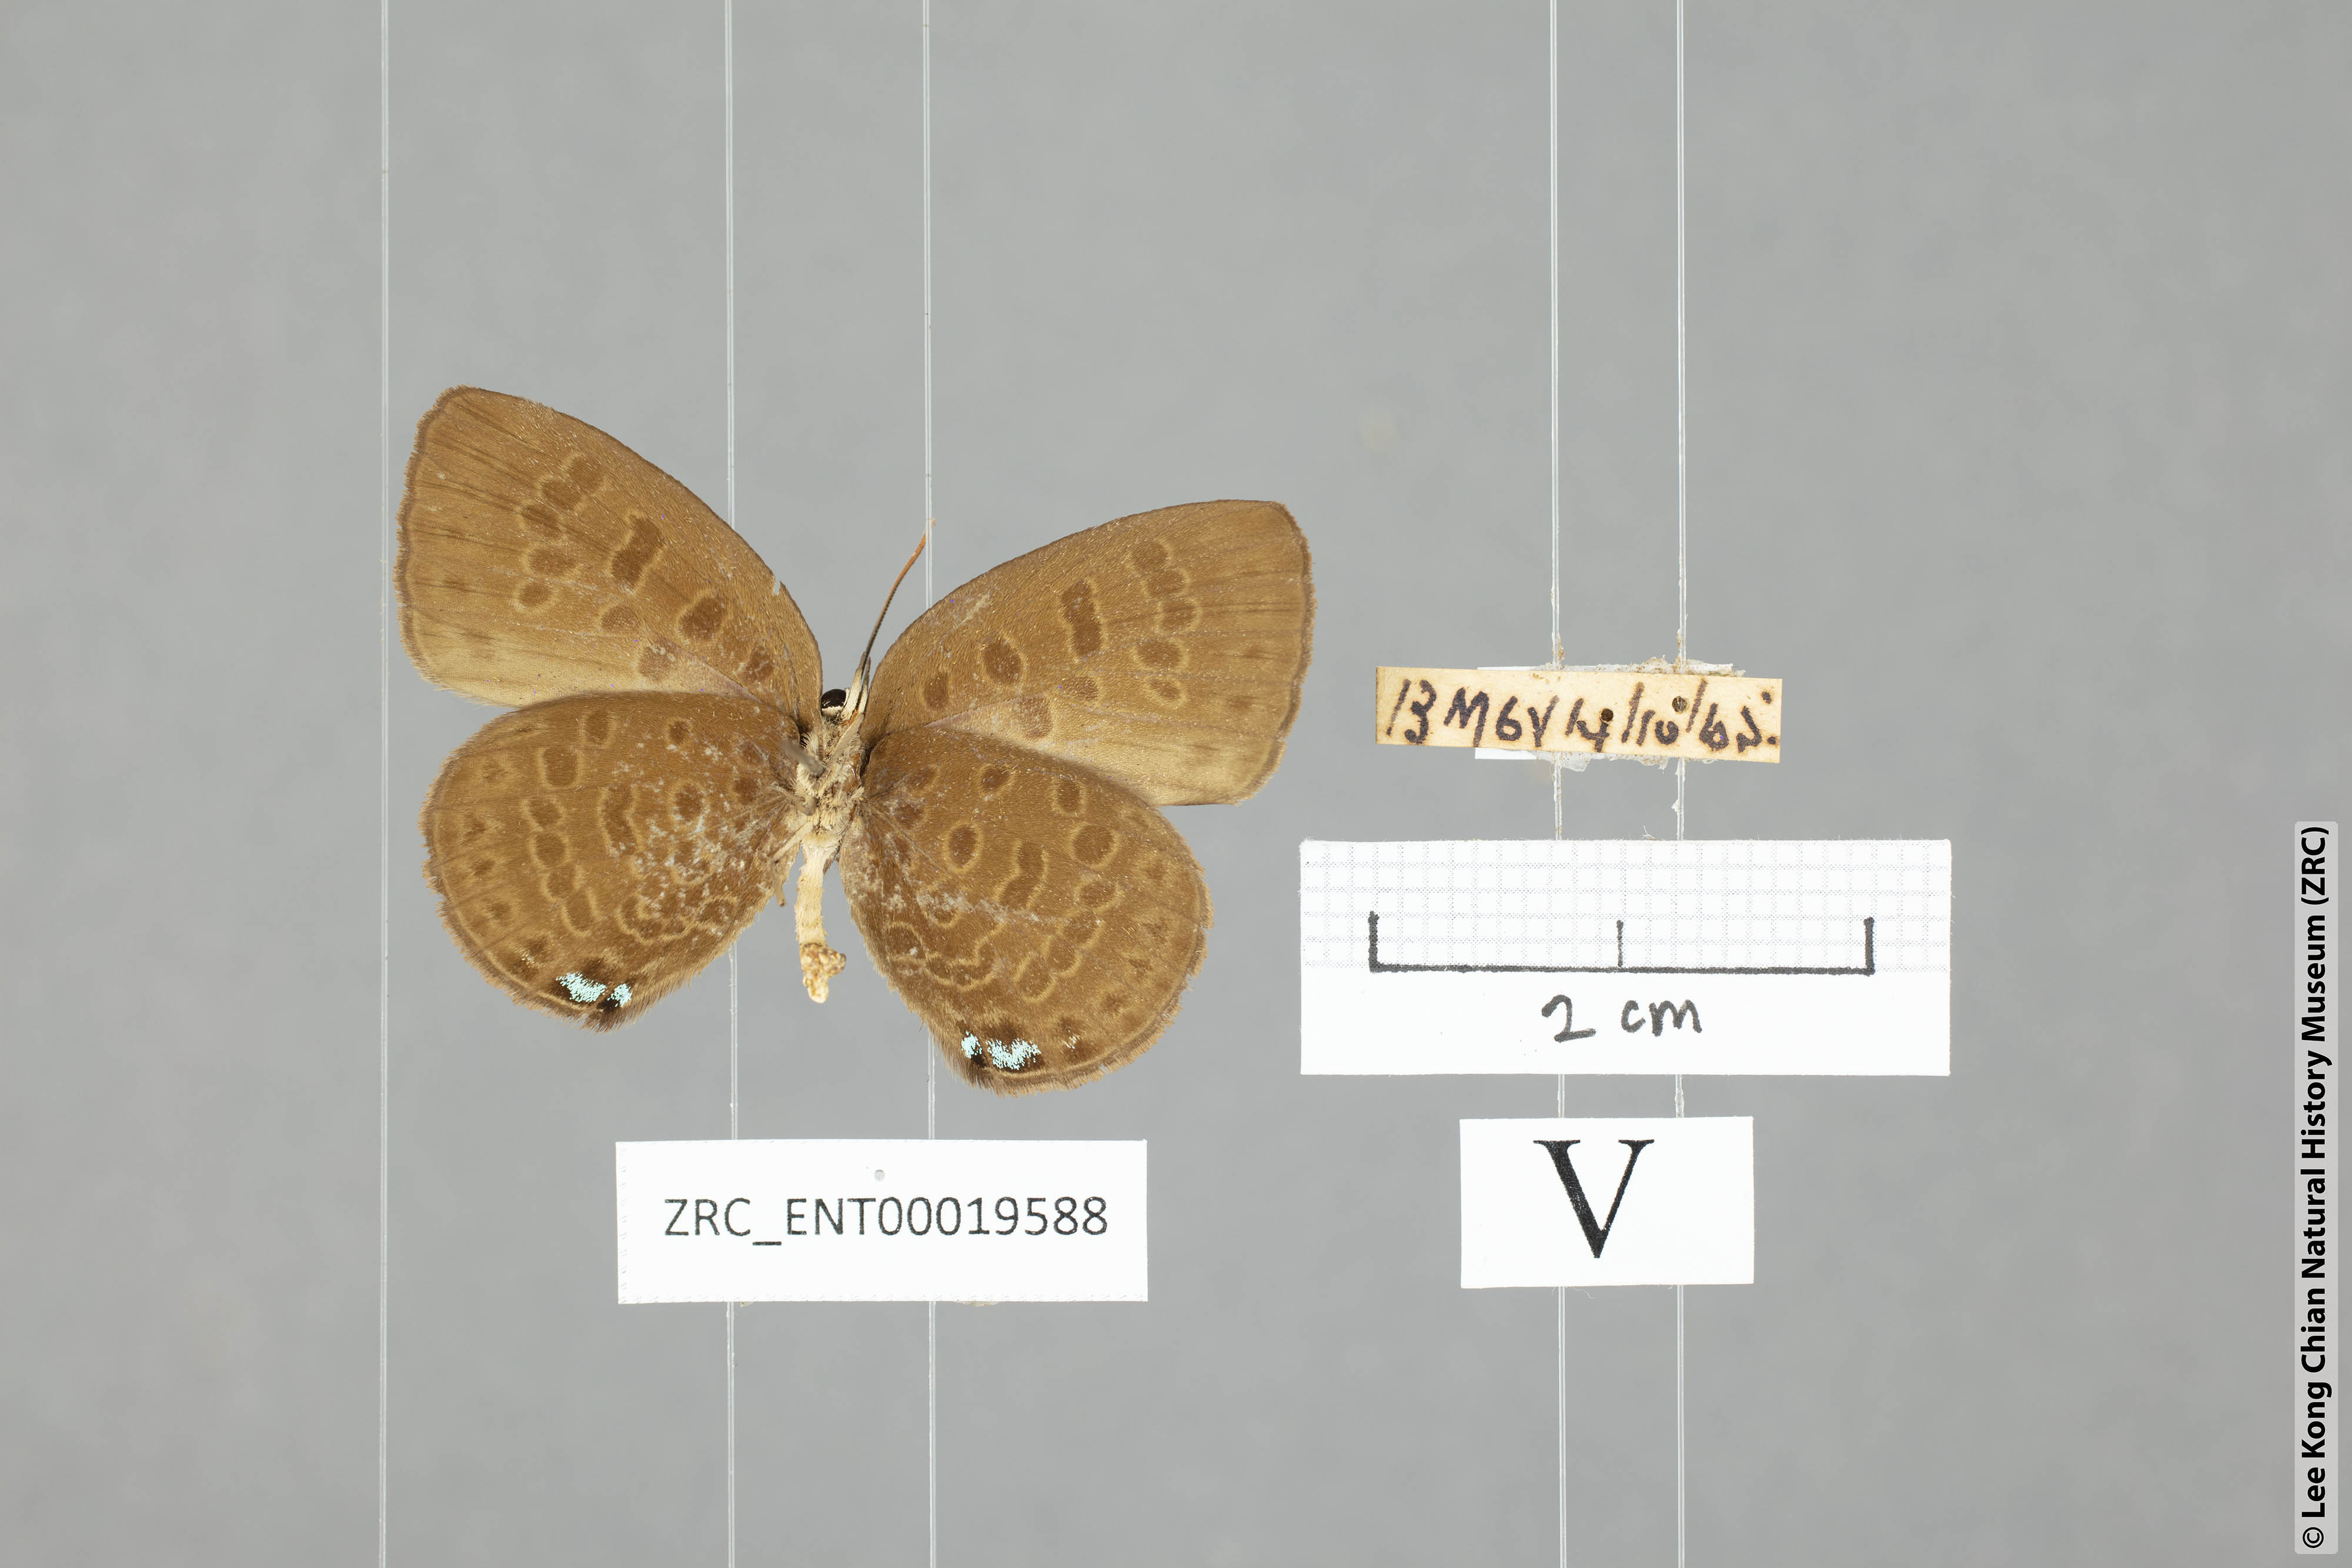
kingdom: Animalia
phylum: Arthropoda
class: Insecta
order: Lepidoptera
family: Lycaenidae
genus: Arhopala
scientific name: Arhopala kurzi
